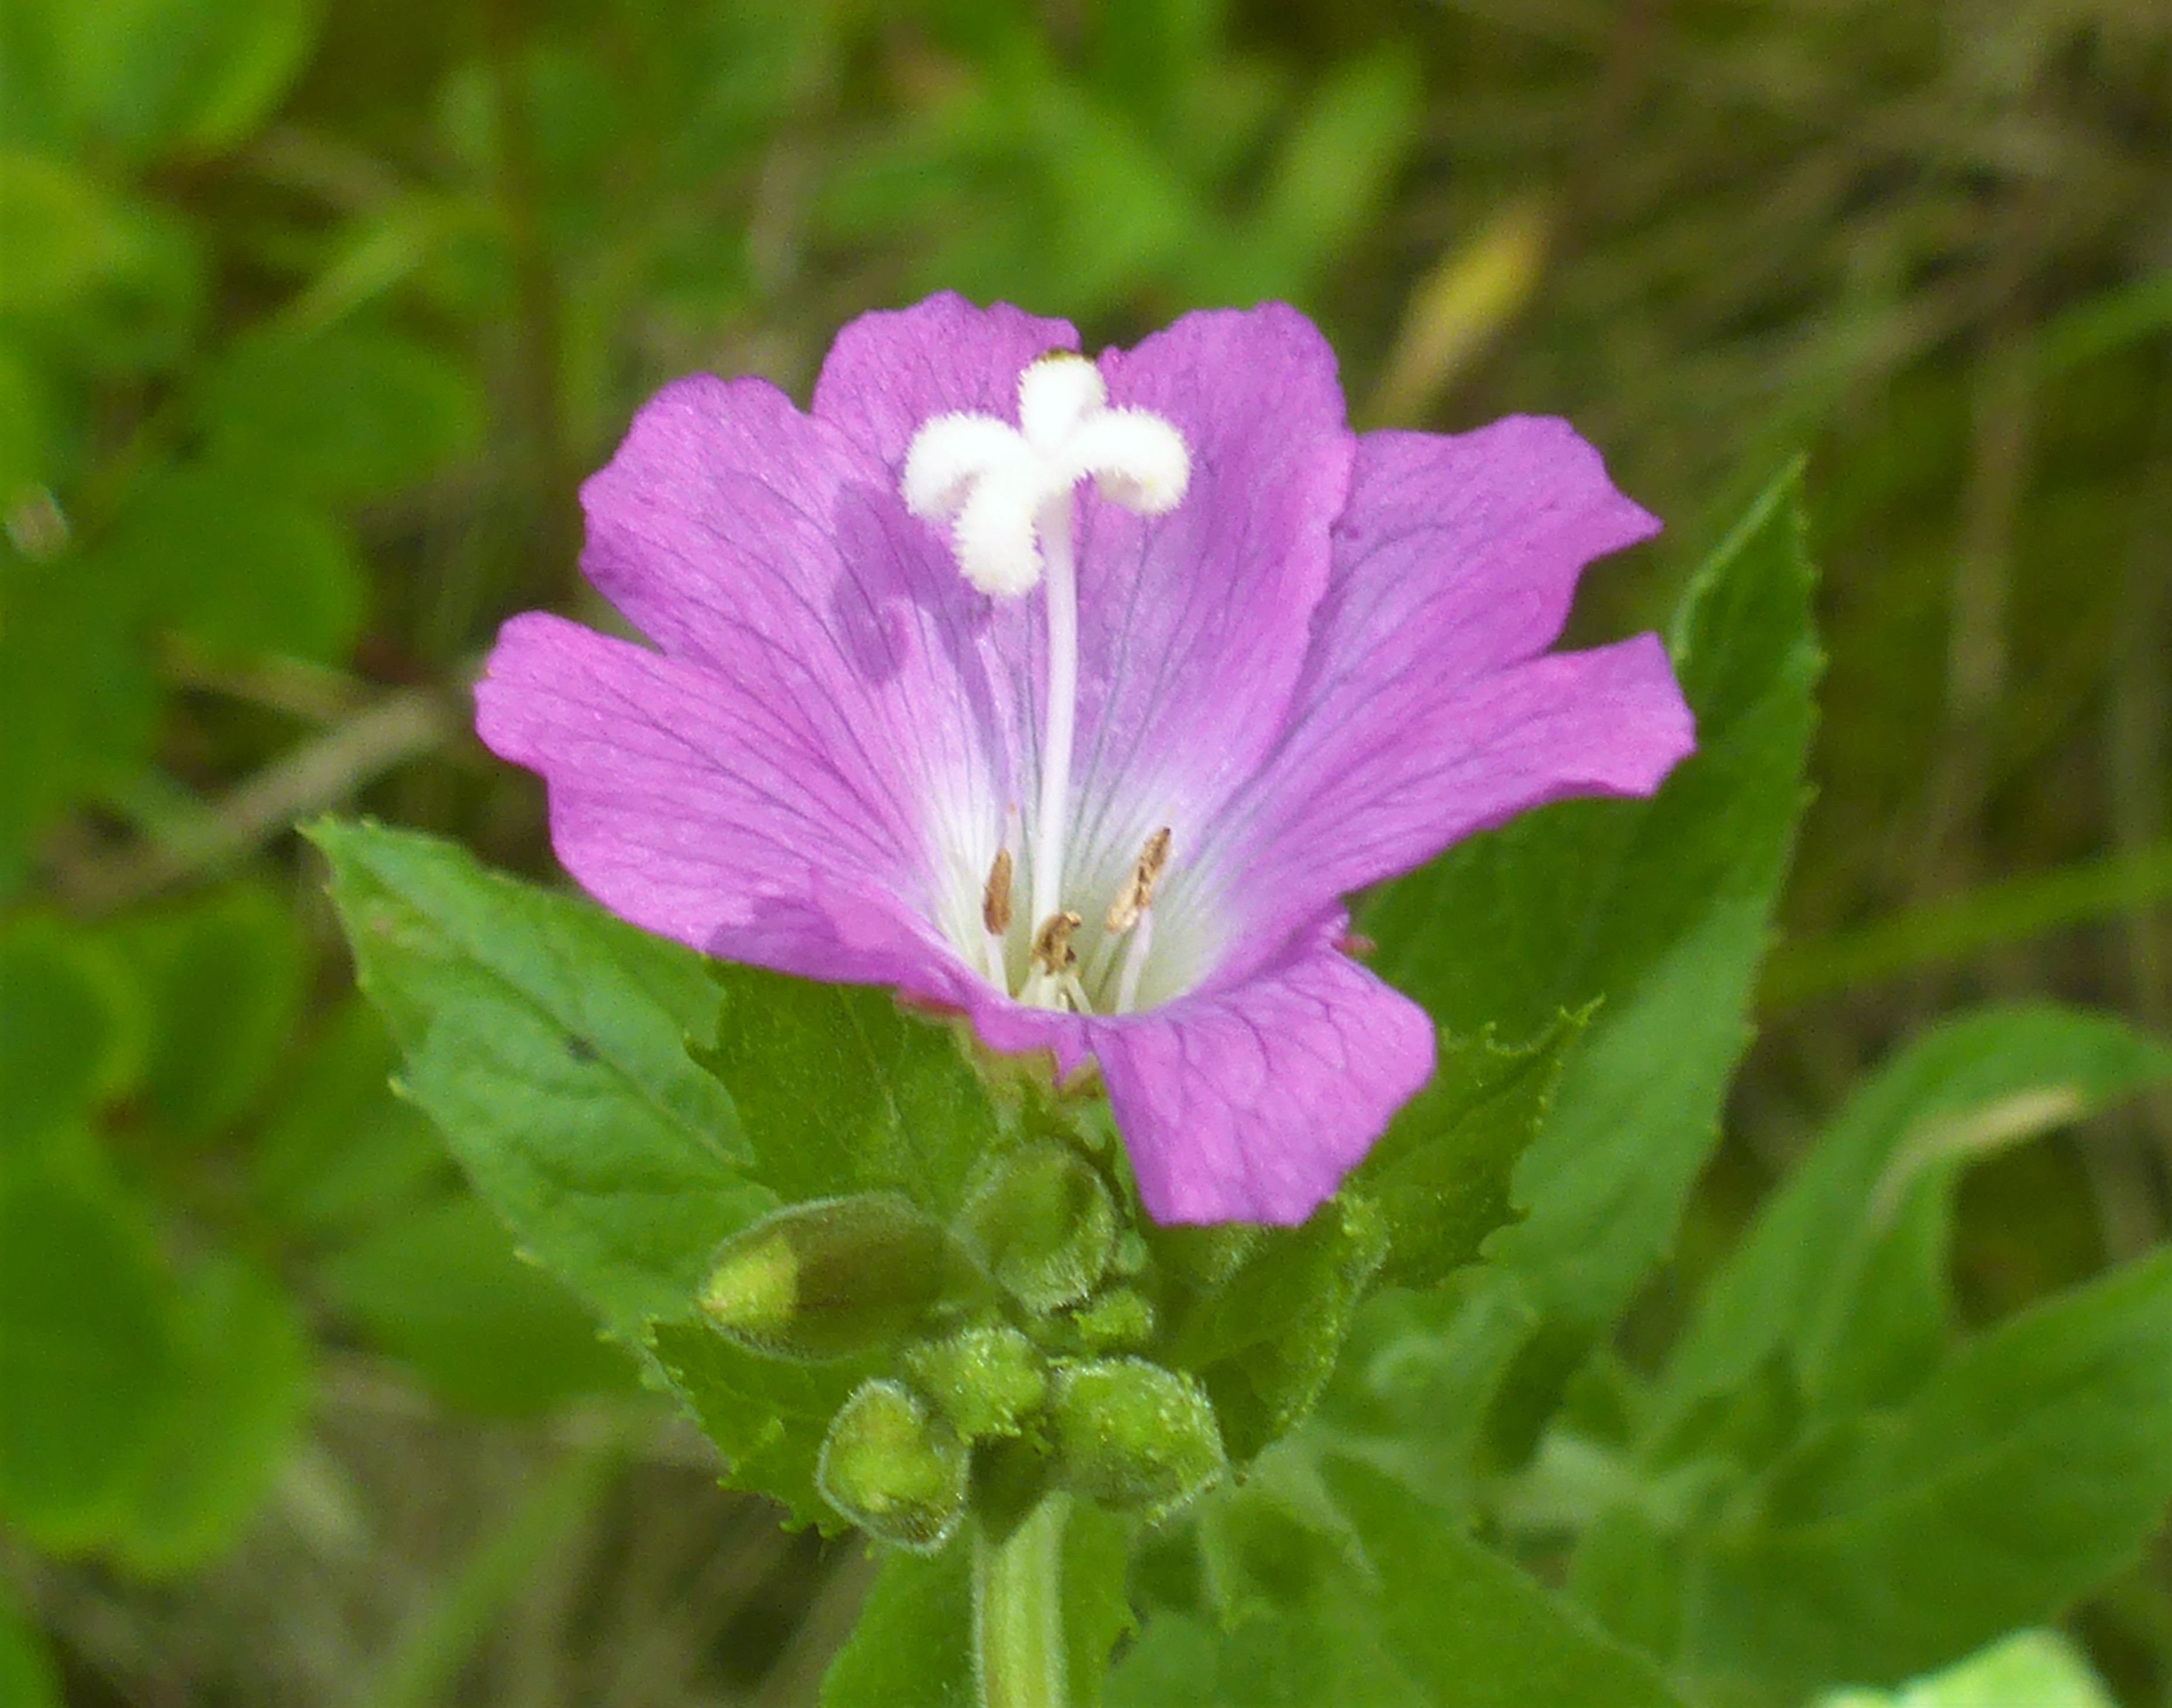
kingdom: Plantae
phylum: Tracheophyta
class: Magnoliopsida
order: Myrtales
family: Onagraceae
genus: Epilobium
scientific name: Epilobium hirsutum
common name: Lådden dueurt
